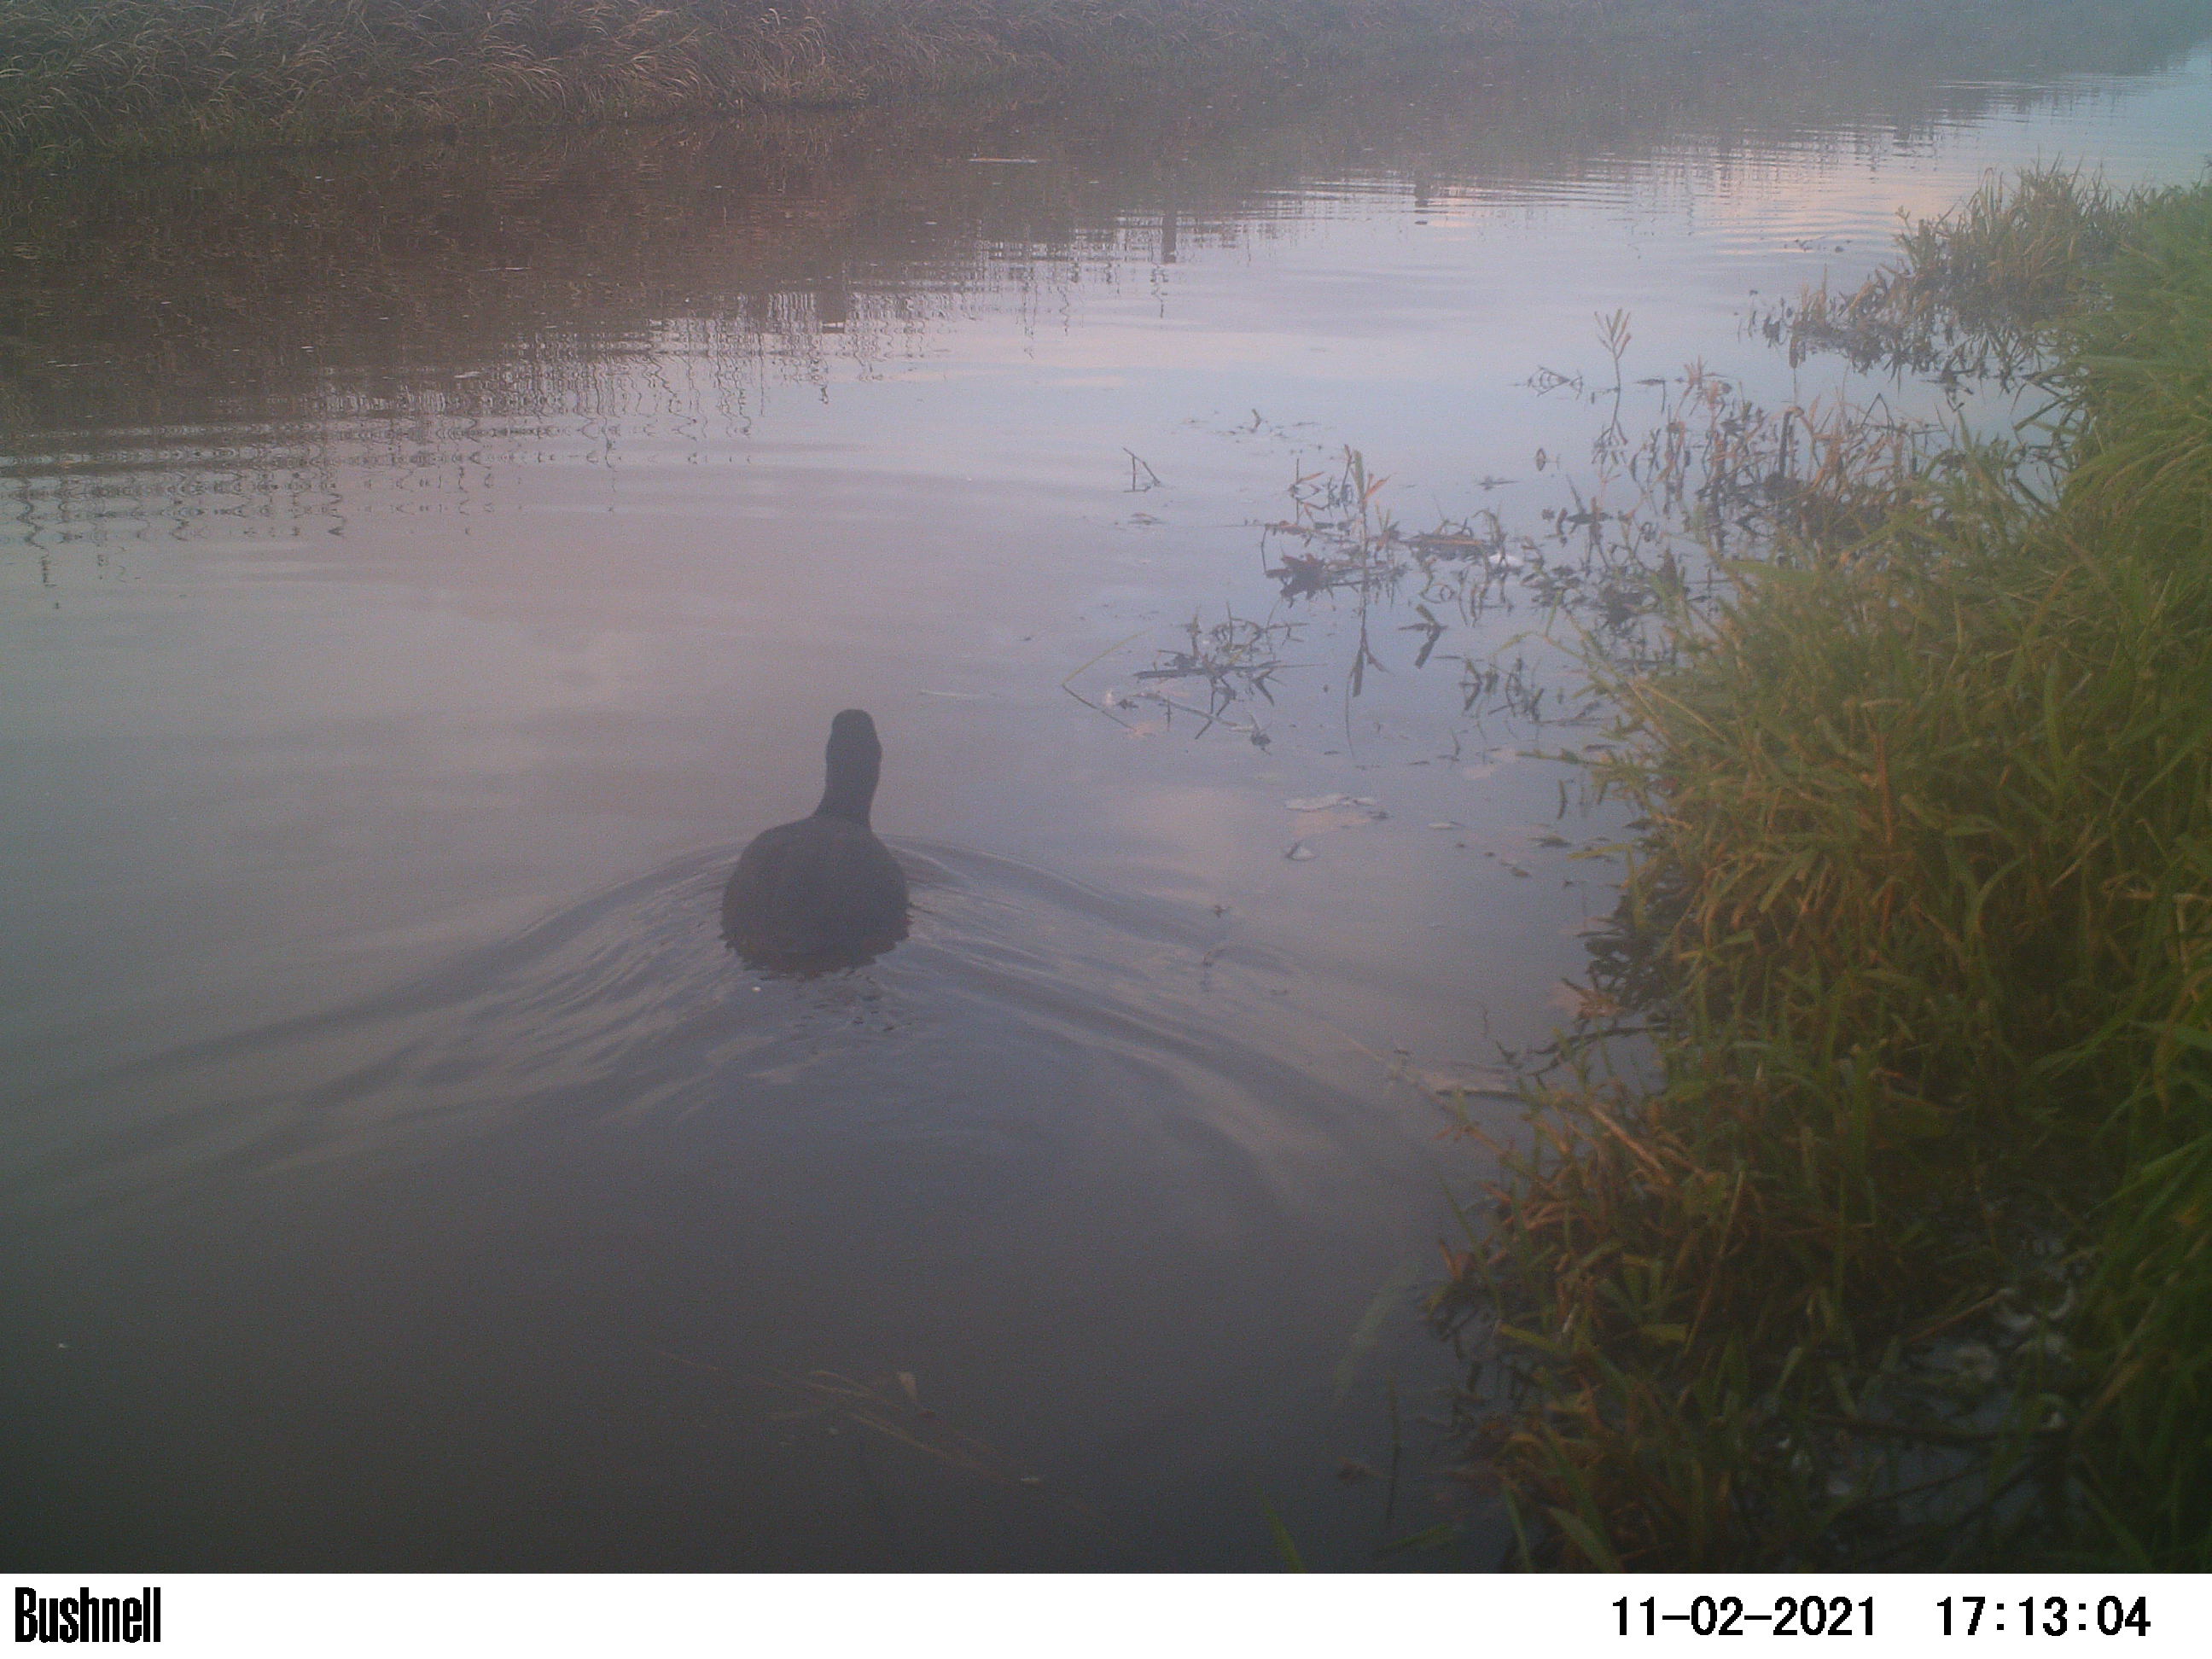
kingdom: Animalia
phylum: Chordata
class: Aves
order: Gruiformes
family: Rallidae
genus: Fulica
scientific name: Fulica atra
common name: Eurasian coot
